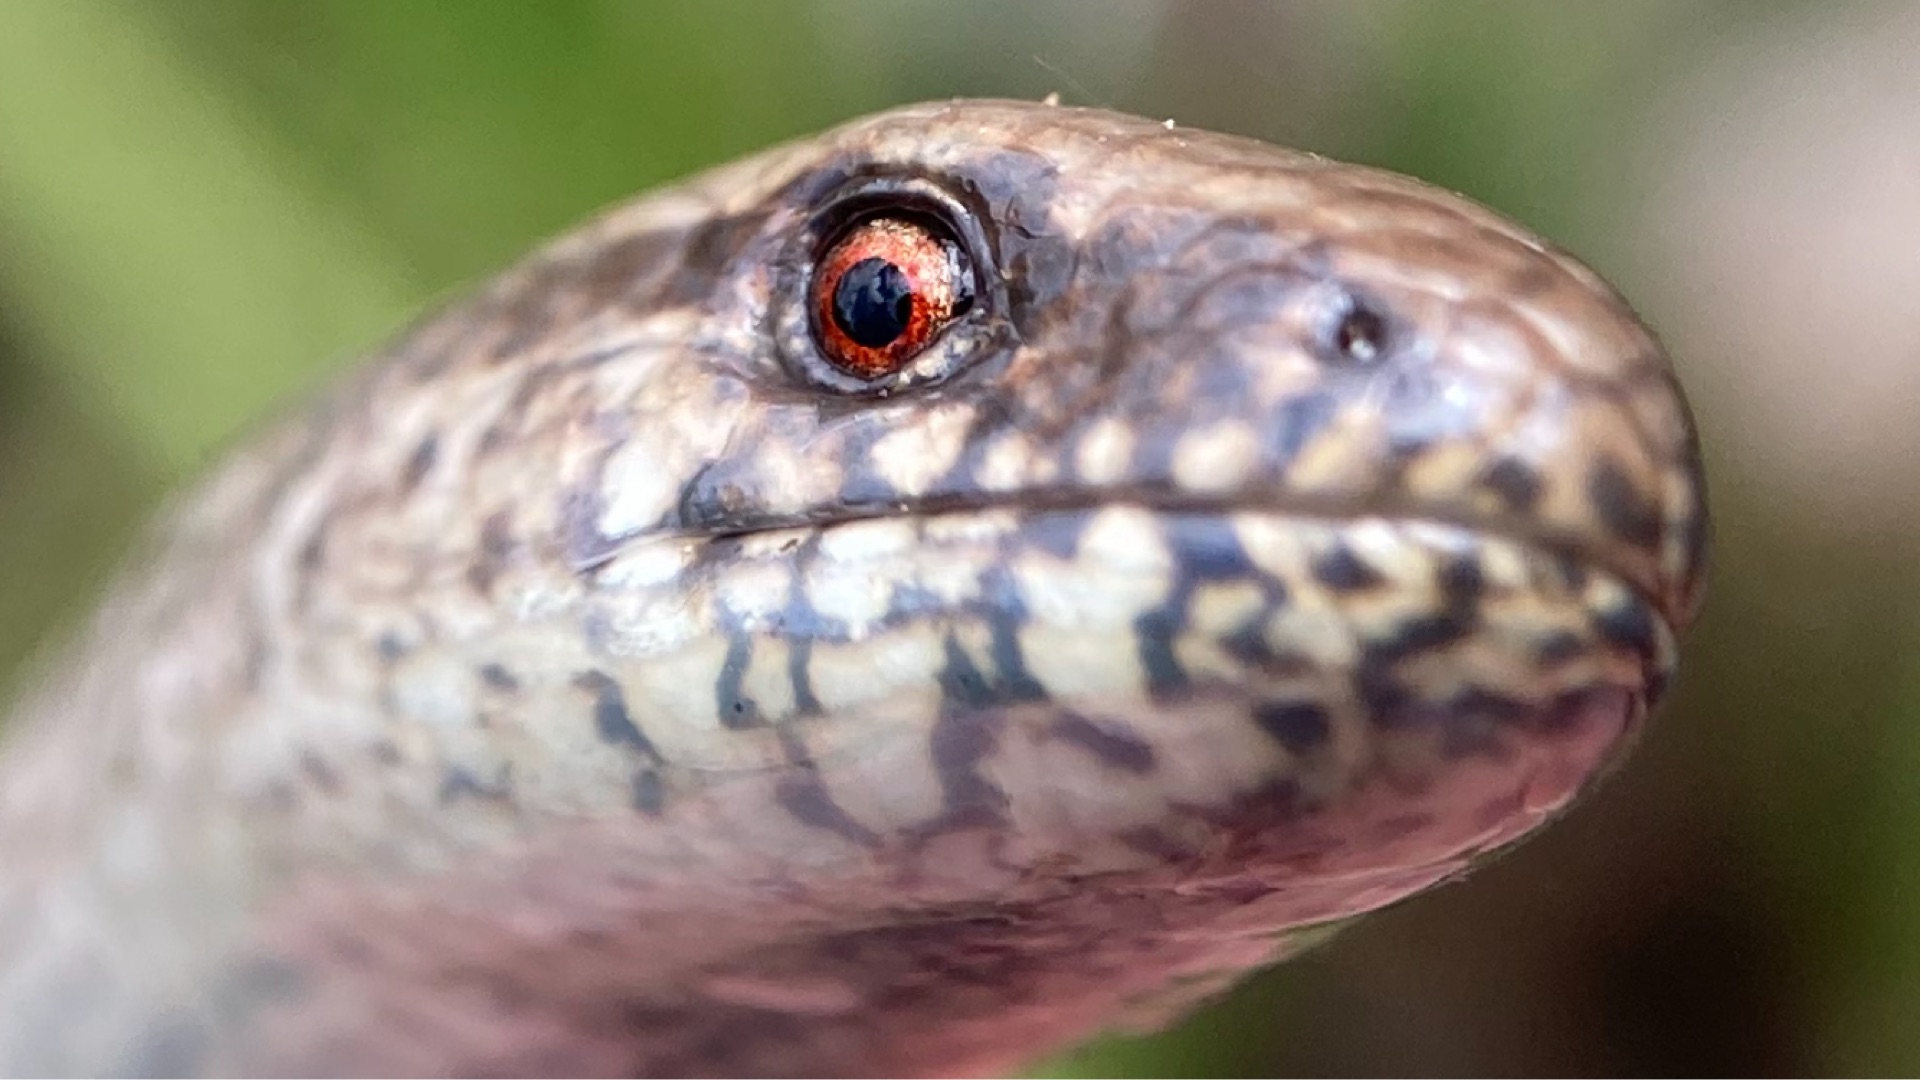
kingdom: Animalia
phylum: Chordata
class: Squamata
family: Anguidae
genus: Anguis
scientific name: Anguis fragilis
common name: Stålorm
